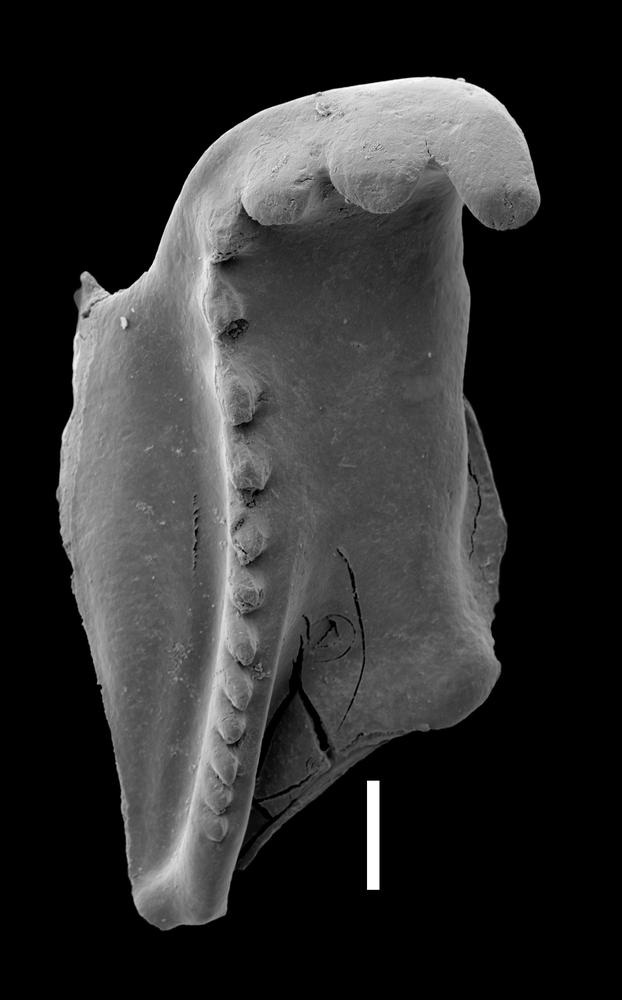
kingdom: Animalia
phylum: Annelida
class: Polychaeta
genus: Symmetroprion
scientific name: Symmetroprion
